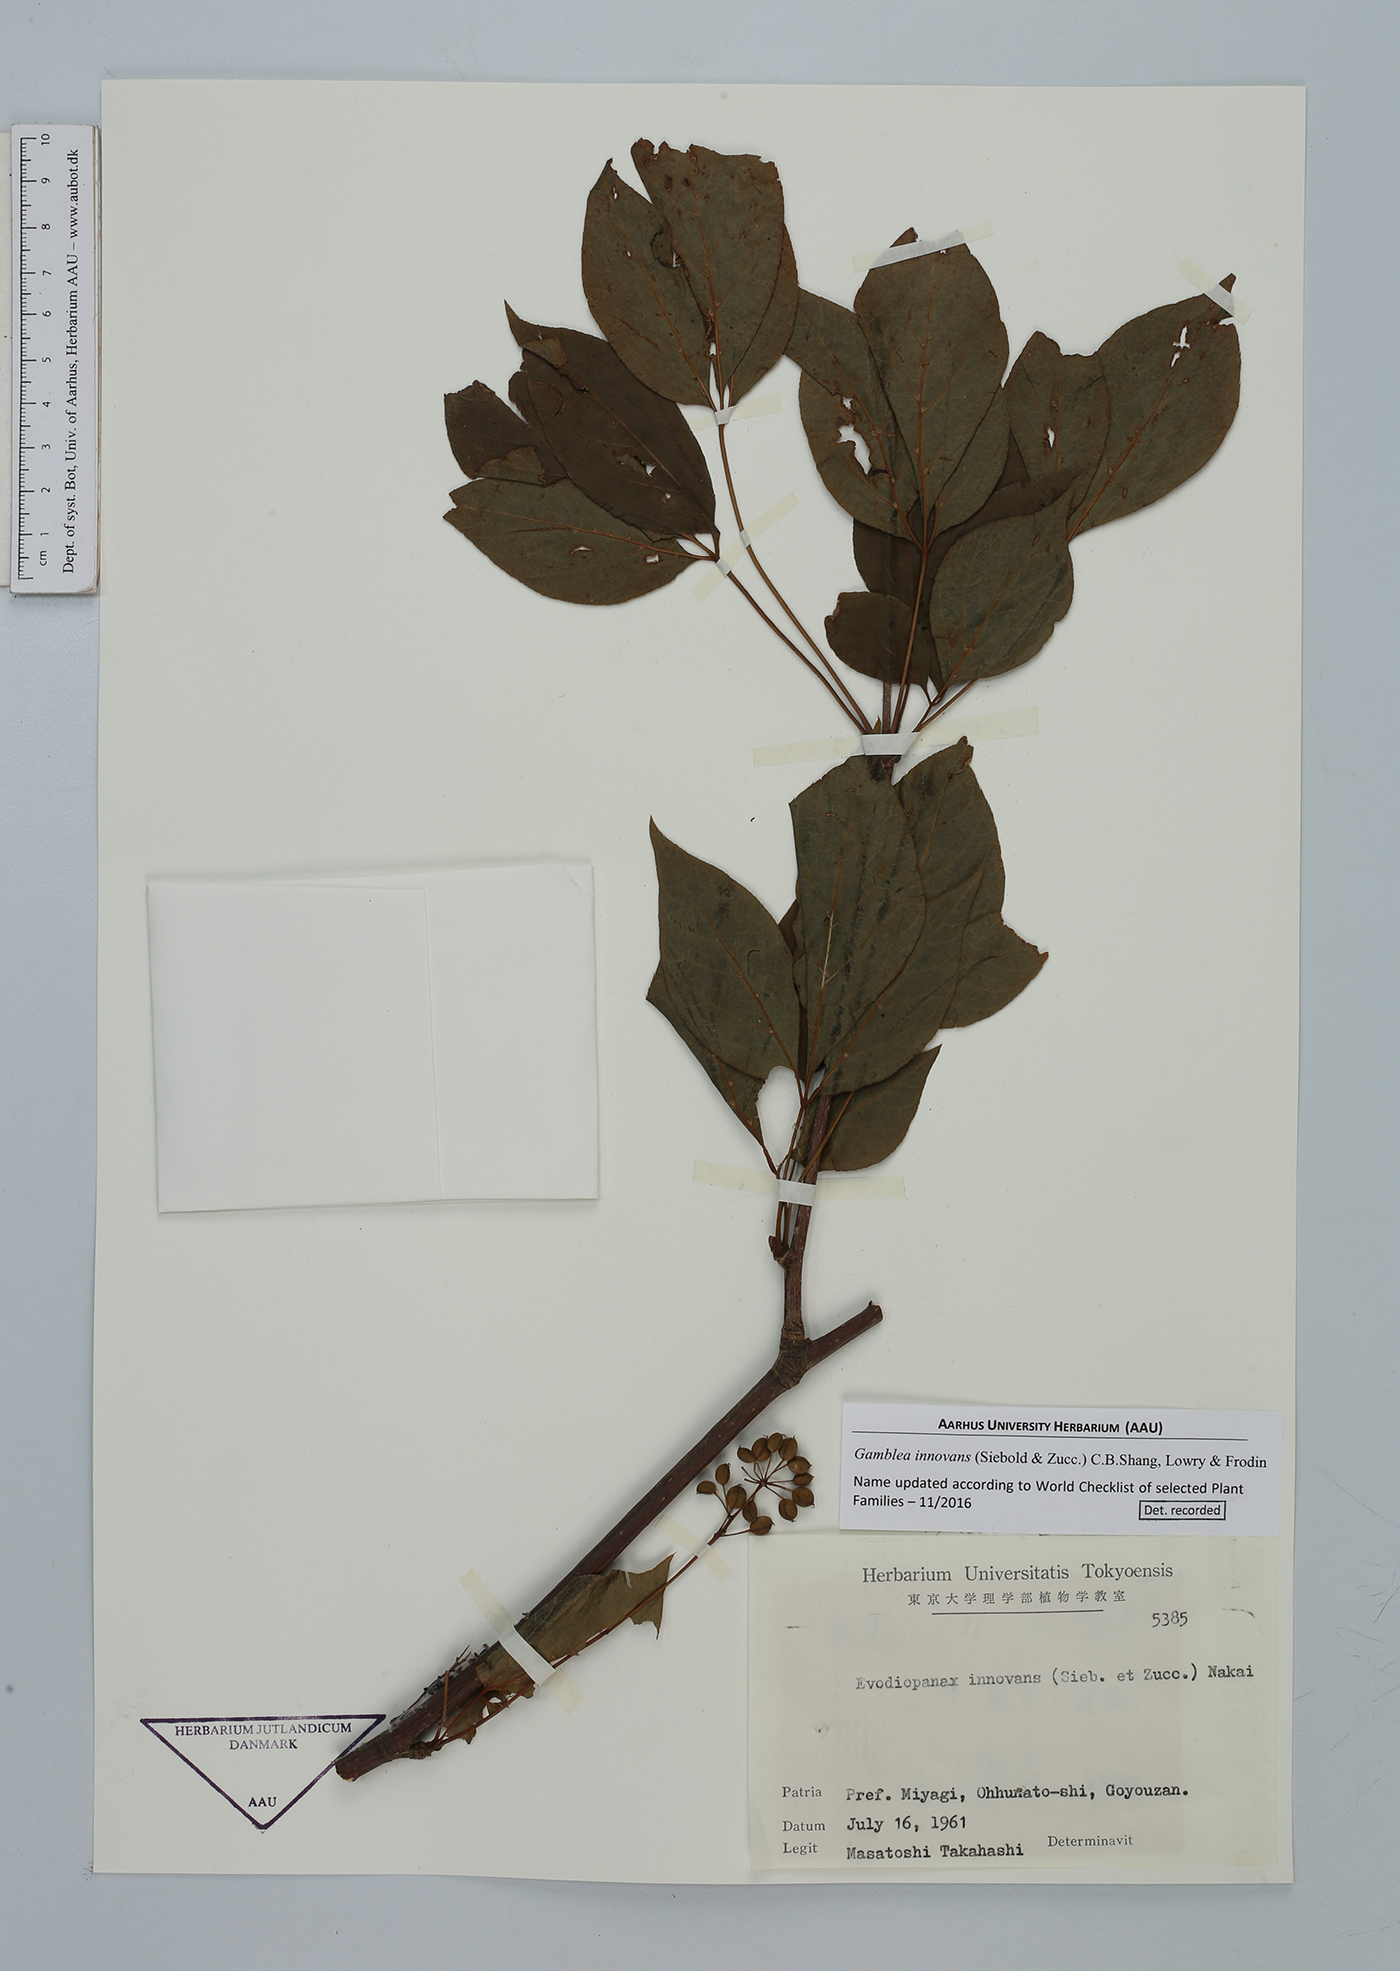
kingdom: Plantae
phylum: Tracheophyta
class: Magnoliopsida
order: Apiales
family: Araliaceae
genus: Gamblea
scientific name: Gamblea innovans
